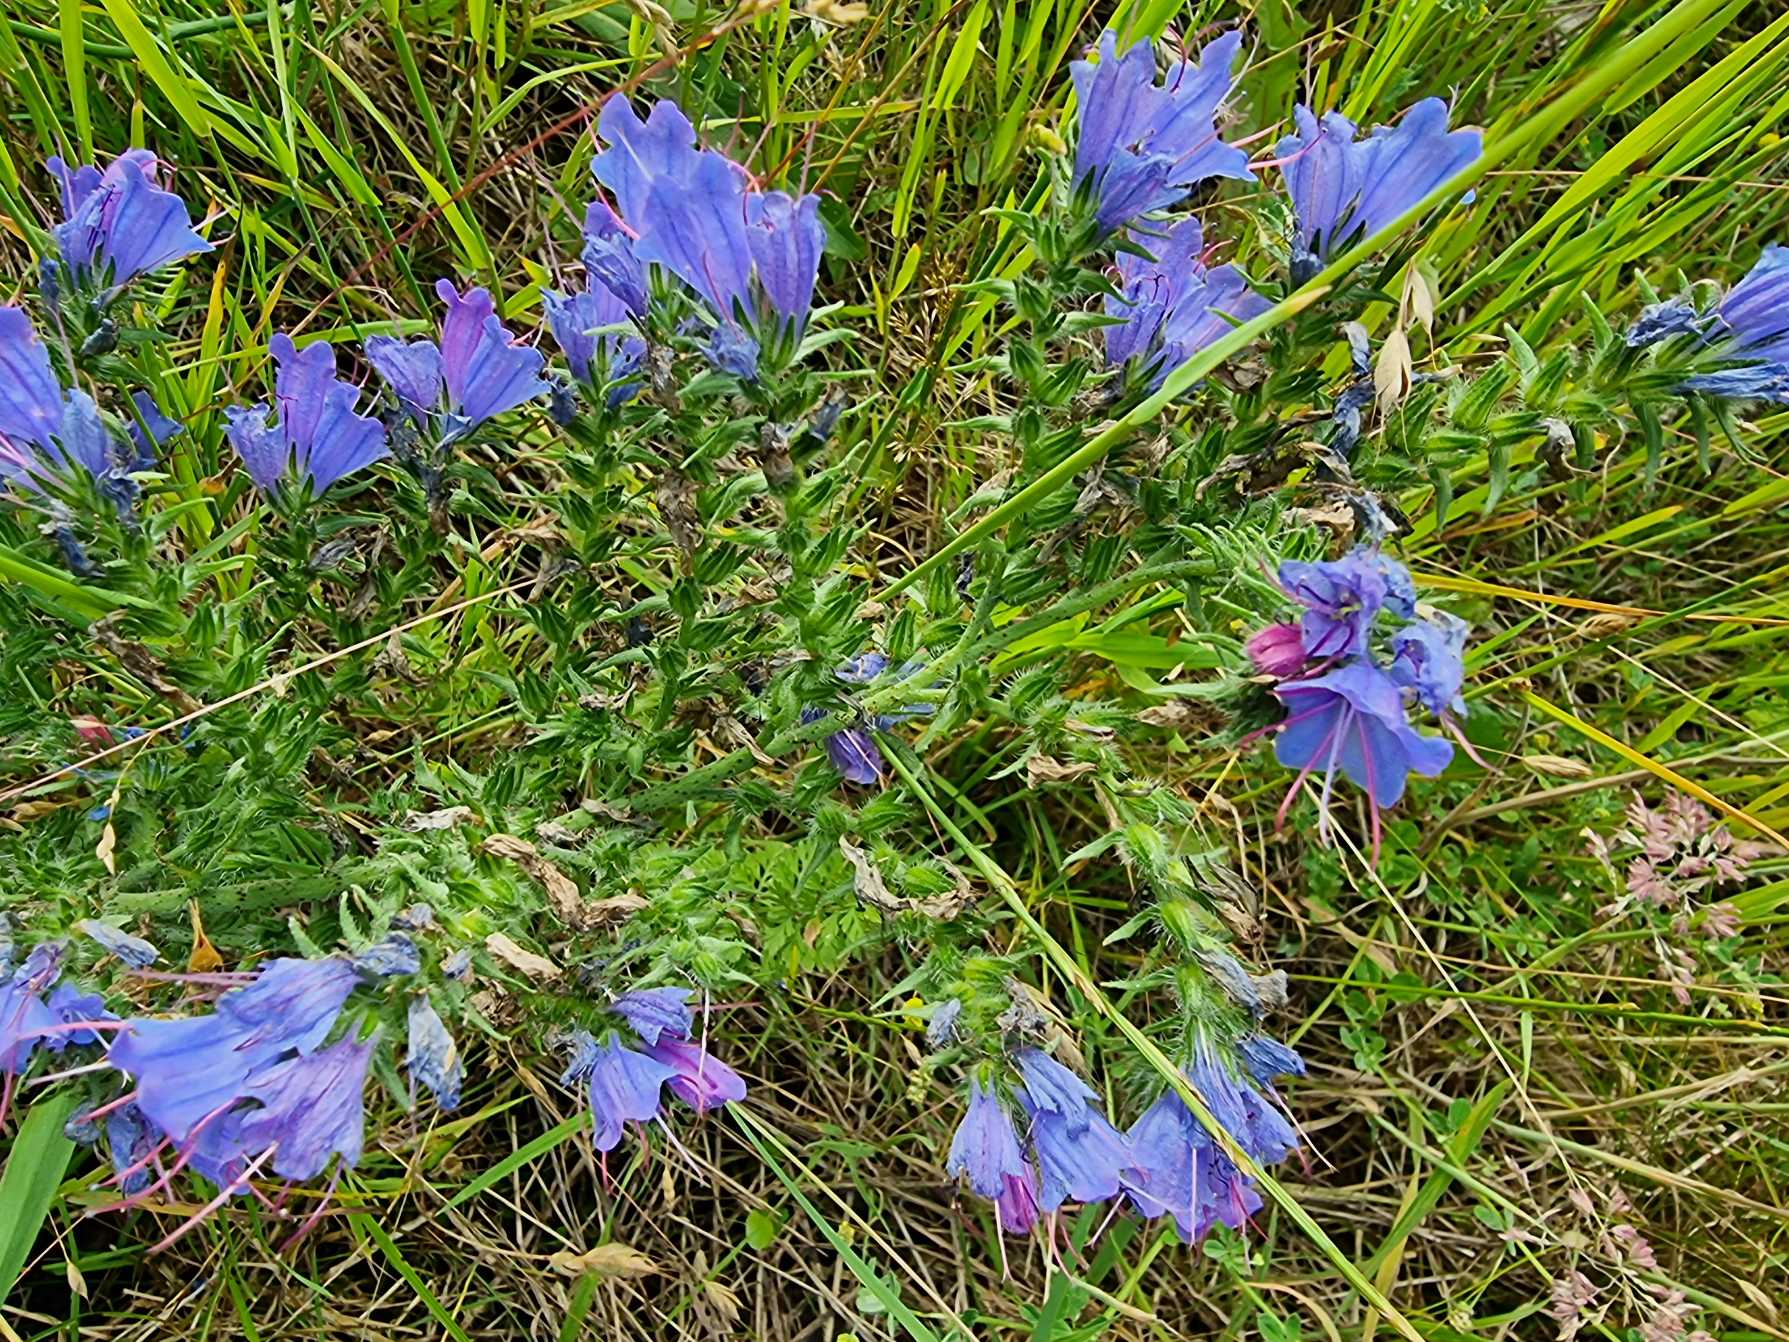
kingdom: Plantae
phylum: Tracheophyta
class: Magnoliopsida
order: Boraginales
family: Boraginaceae
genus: Echium
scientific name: Echium vulgare
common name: Slangehoved
